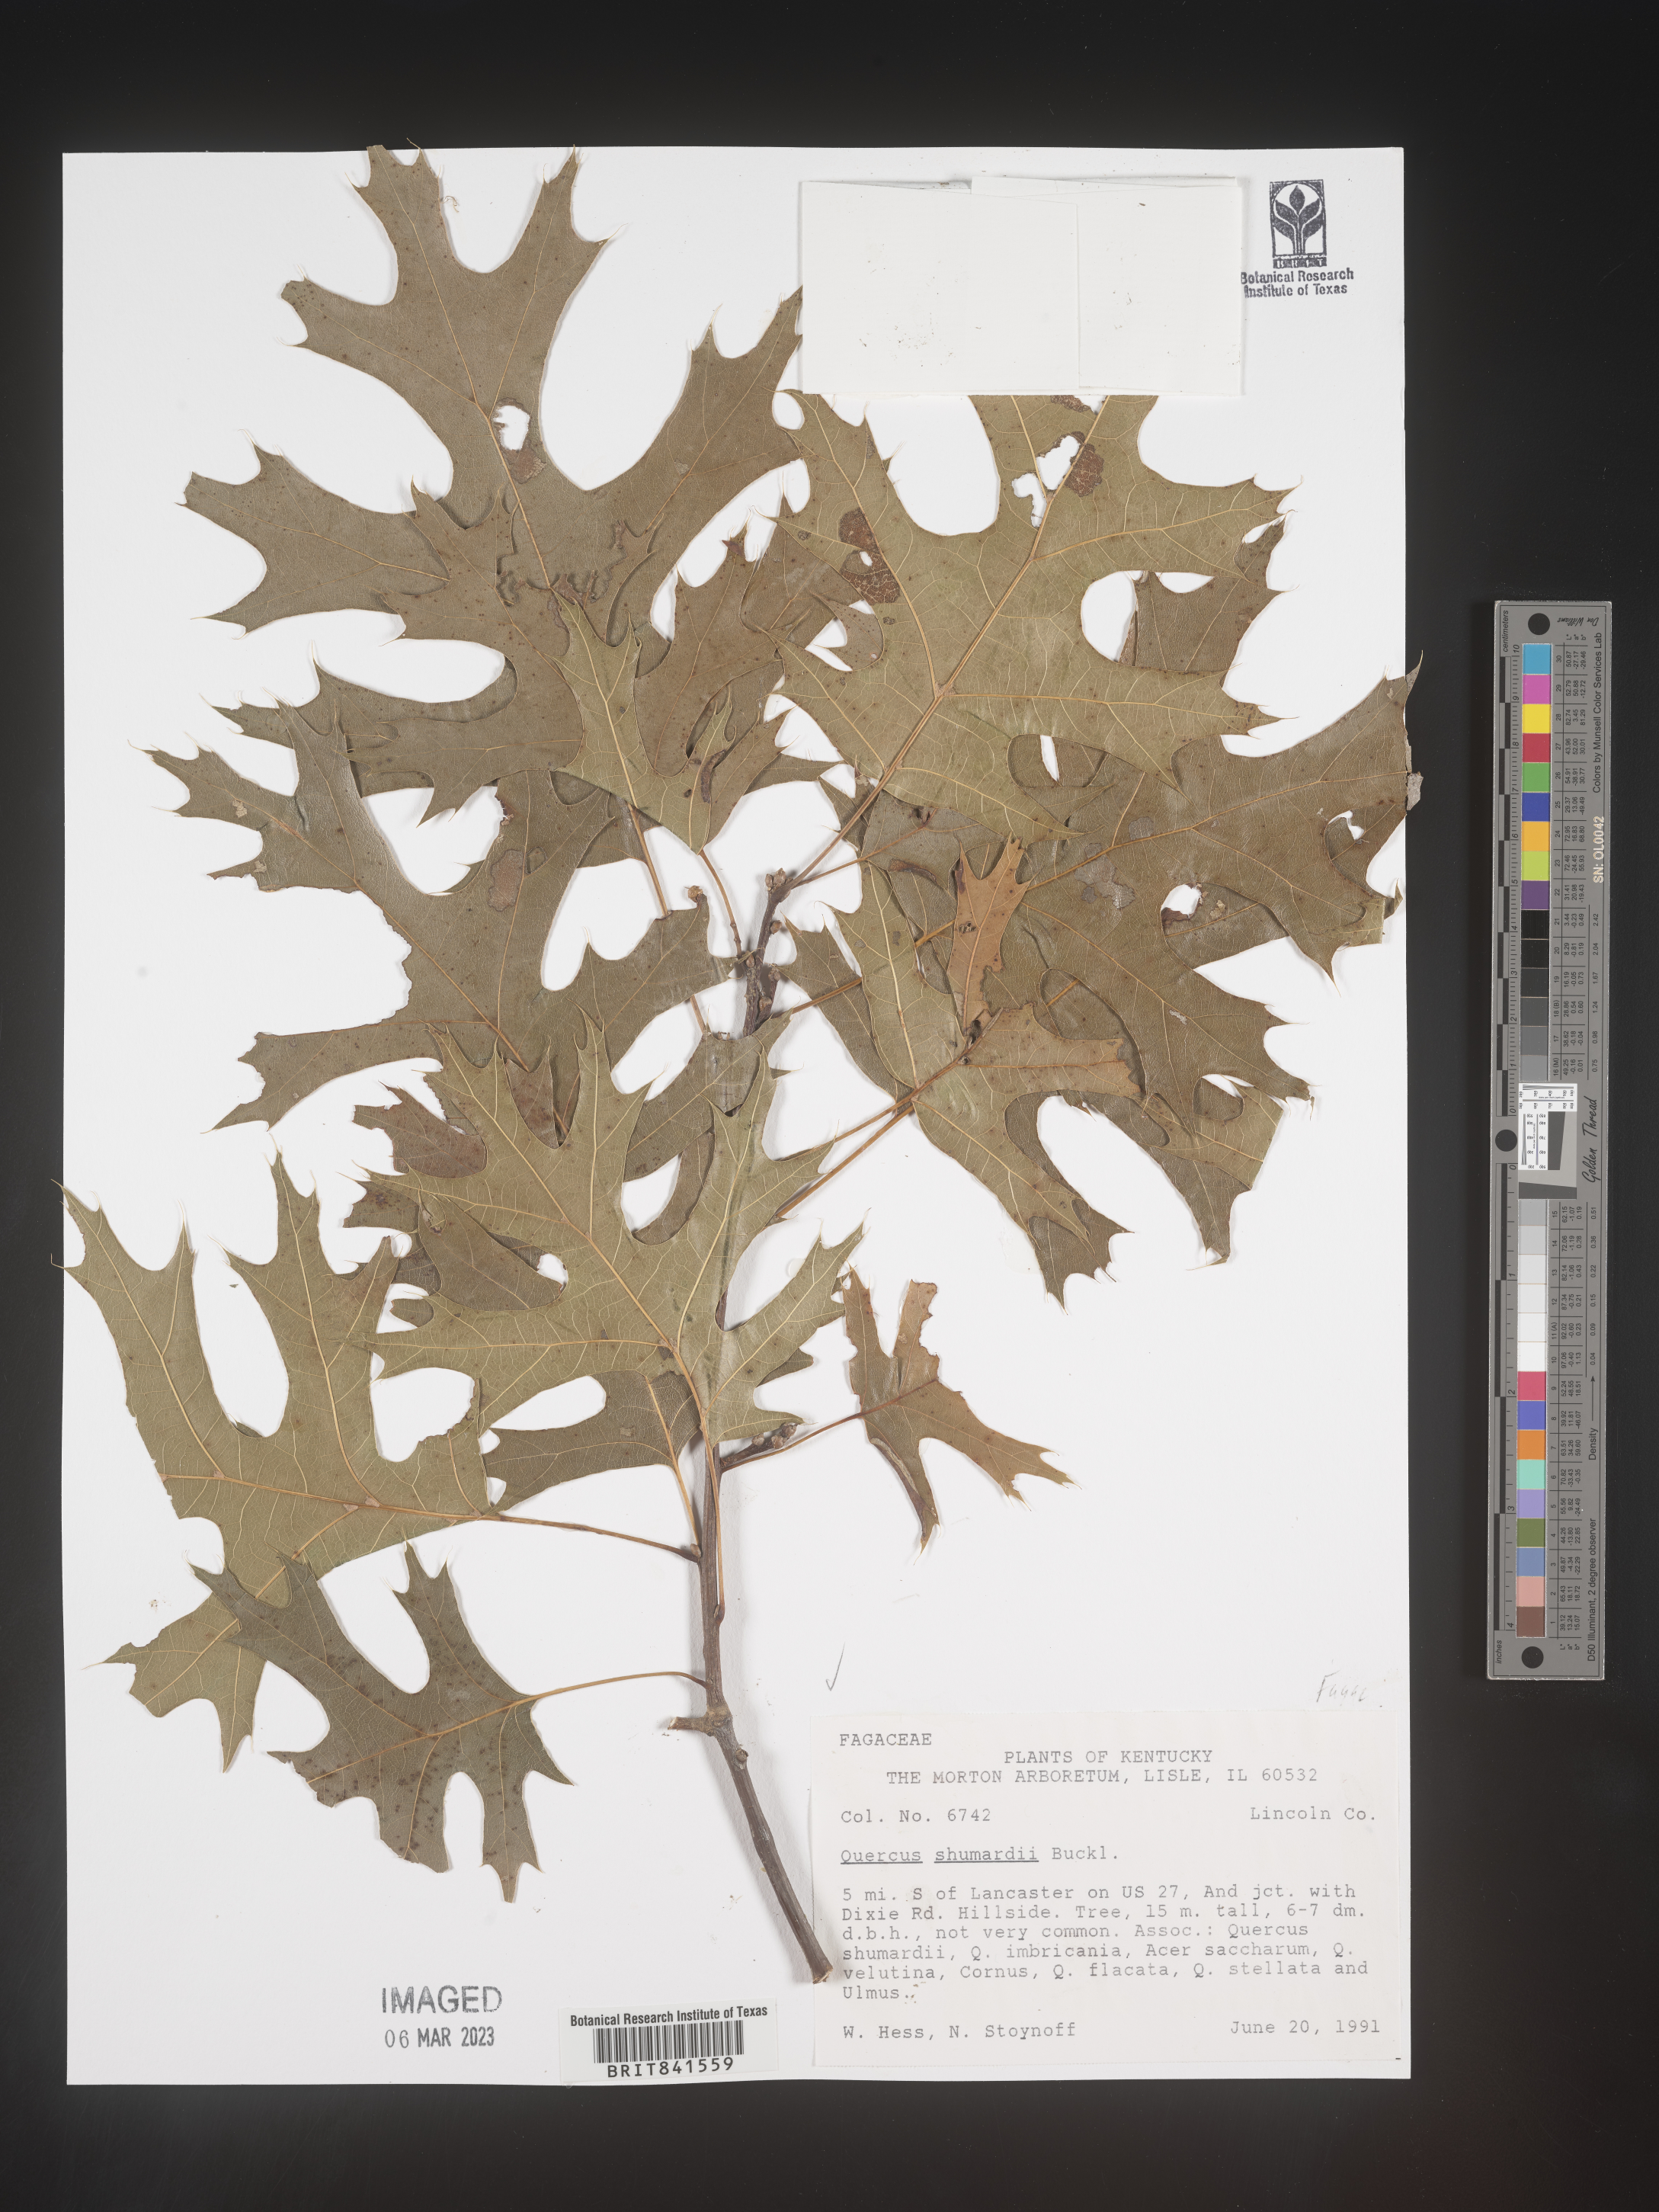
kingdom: Plantae
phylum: Tracheophyta
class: Magnoliopsida
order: Fagales
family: Fagaceae
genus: Quercus
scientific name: Quercus shumardii
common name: Shumard oak
